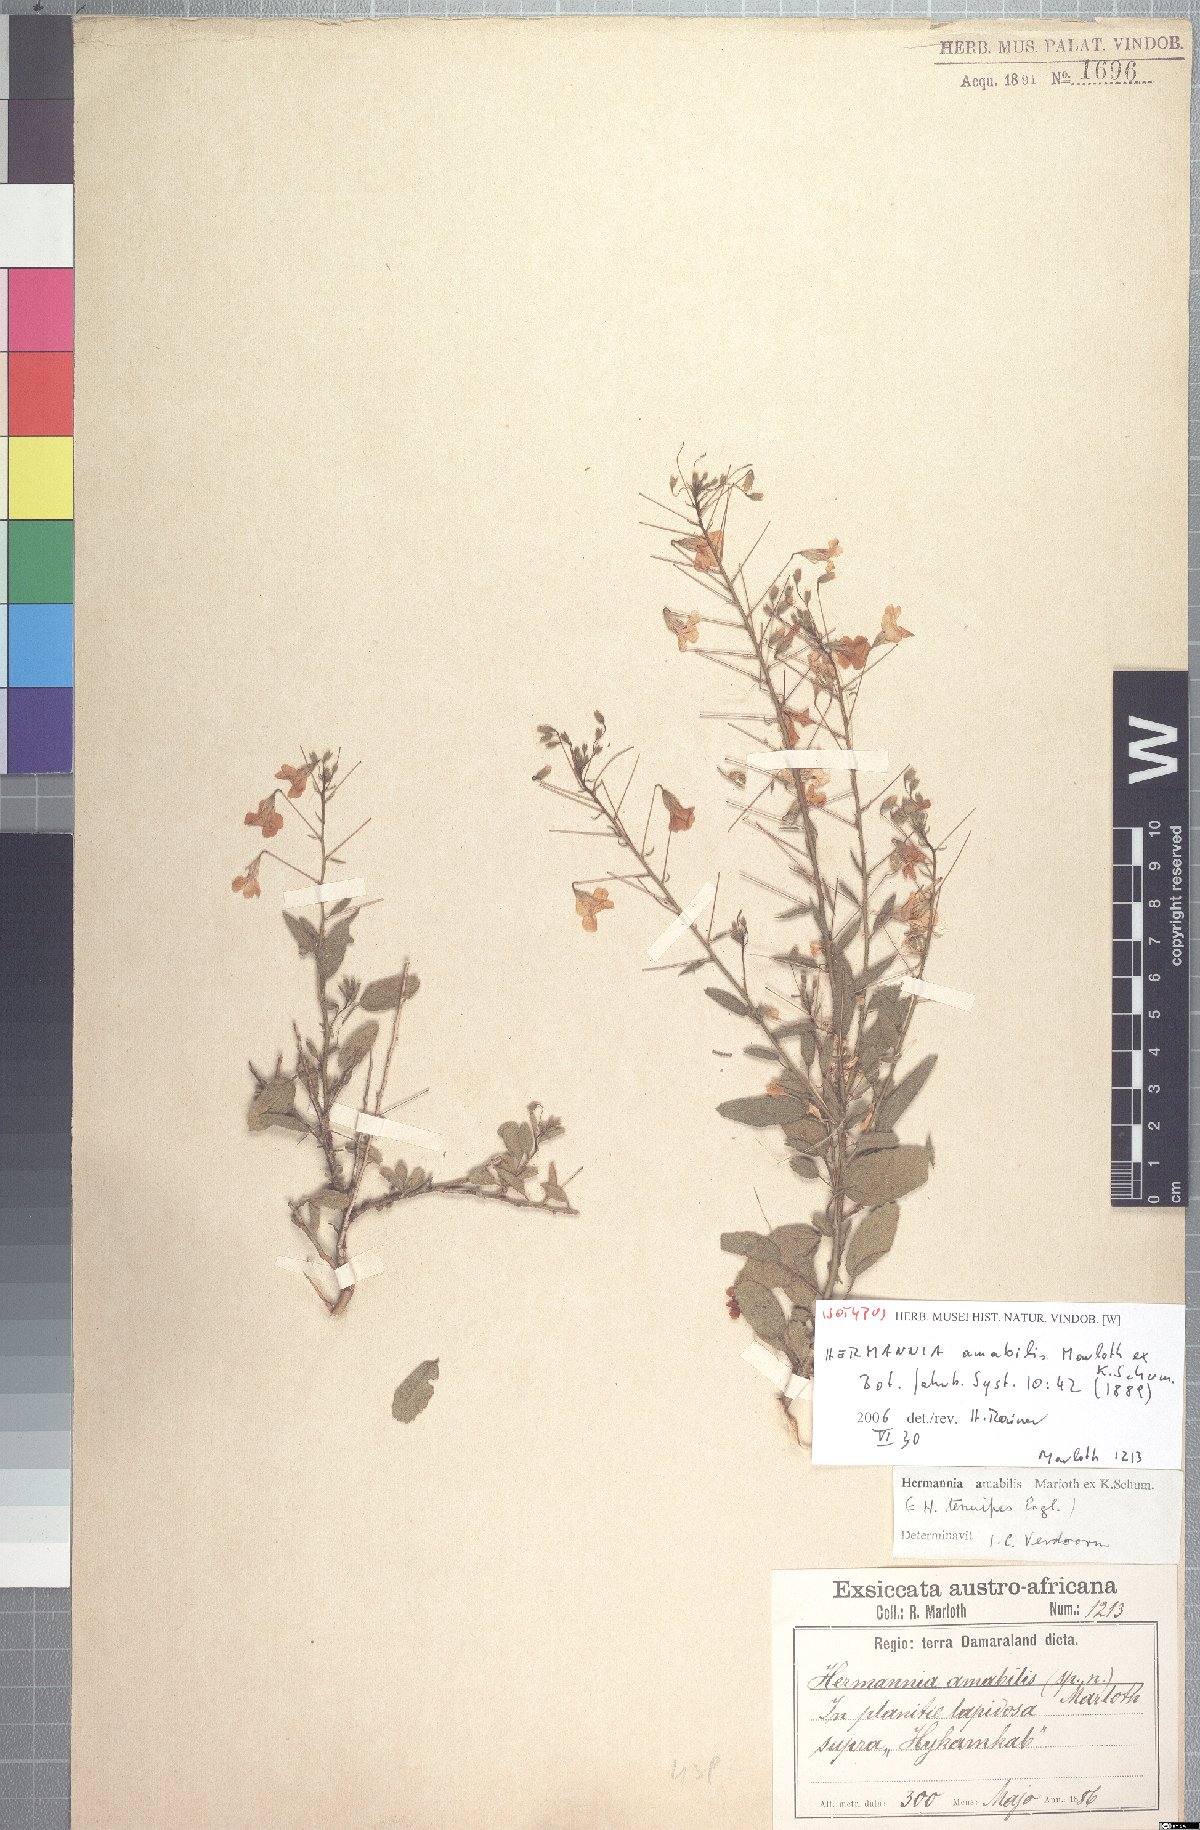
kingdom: Plantae
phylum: Tracheophyta
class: Magnoliopsida
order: Malvales
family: Malvaceae
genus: Hermannia
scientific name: Hermannia amabilis
